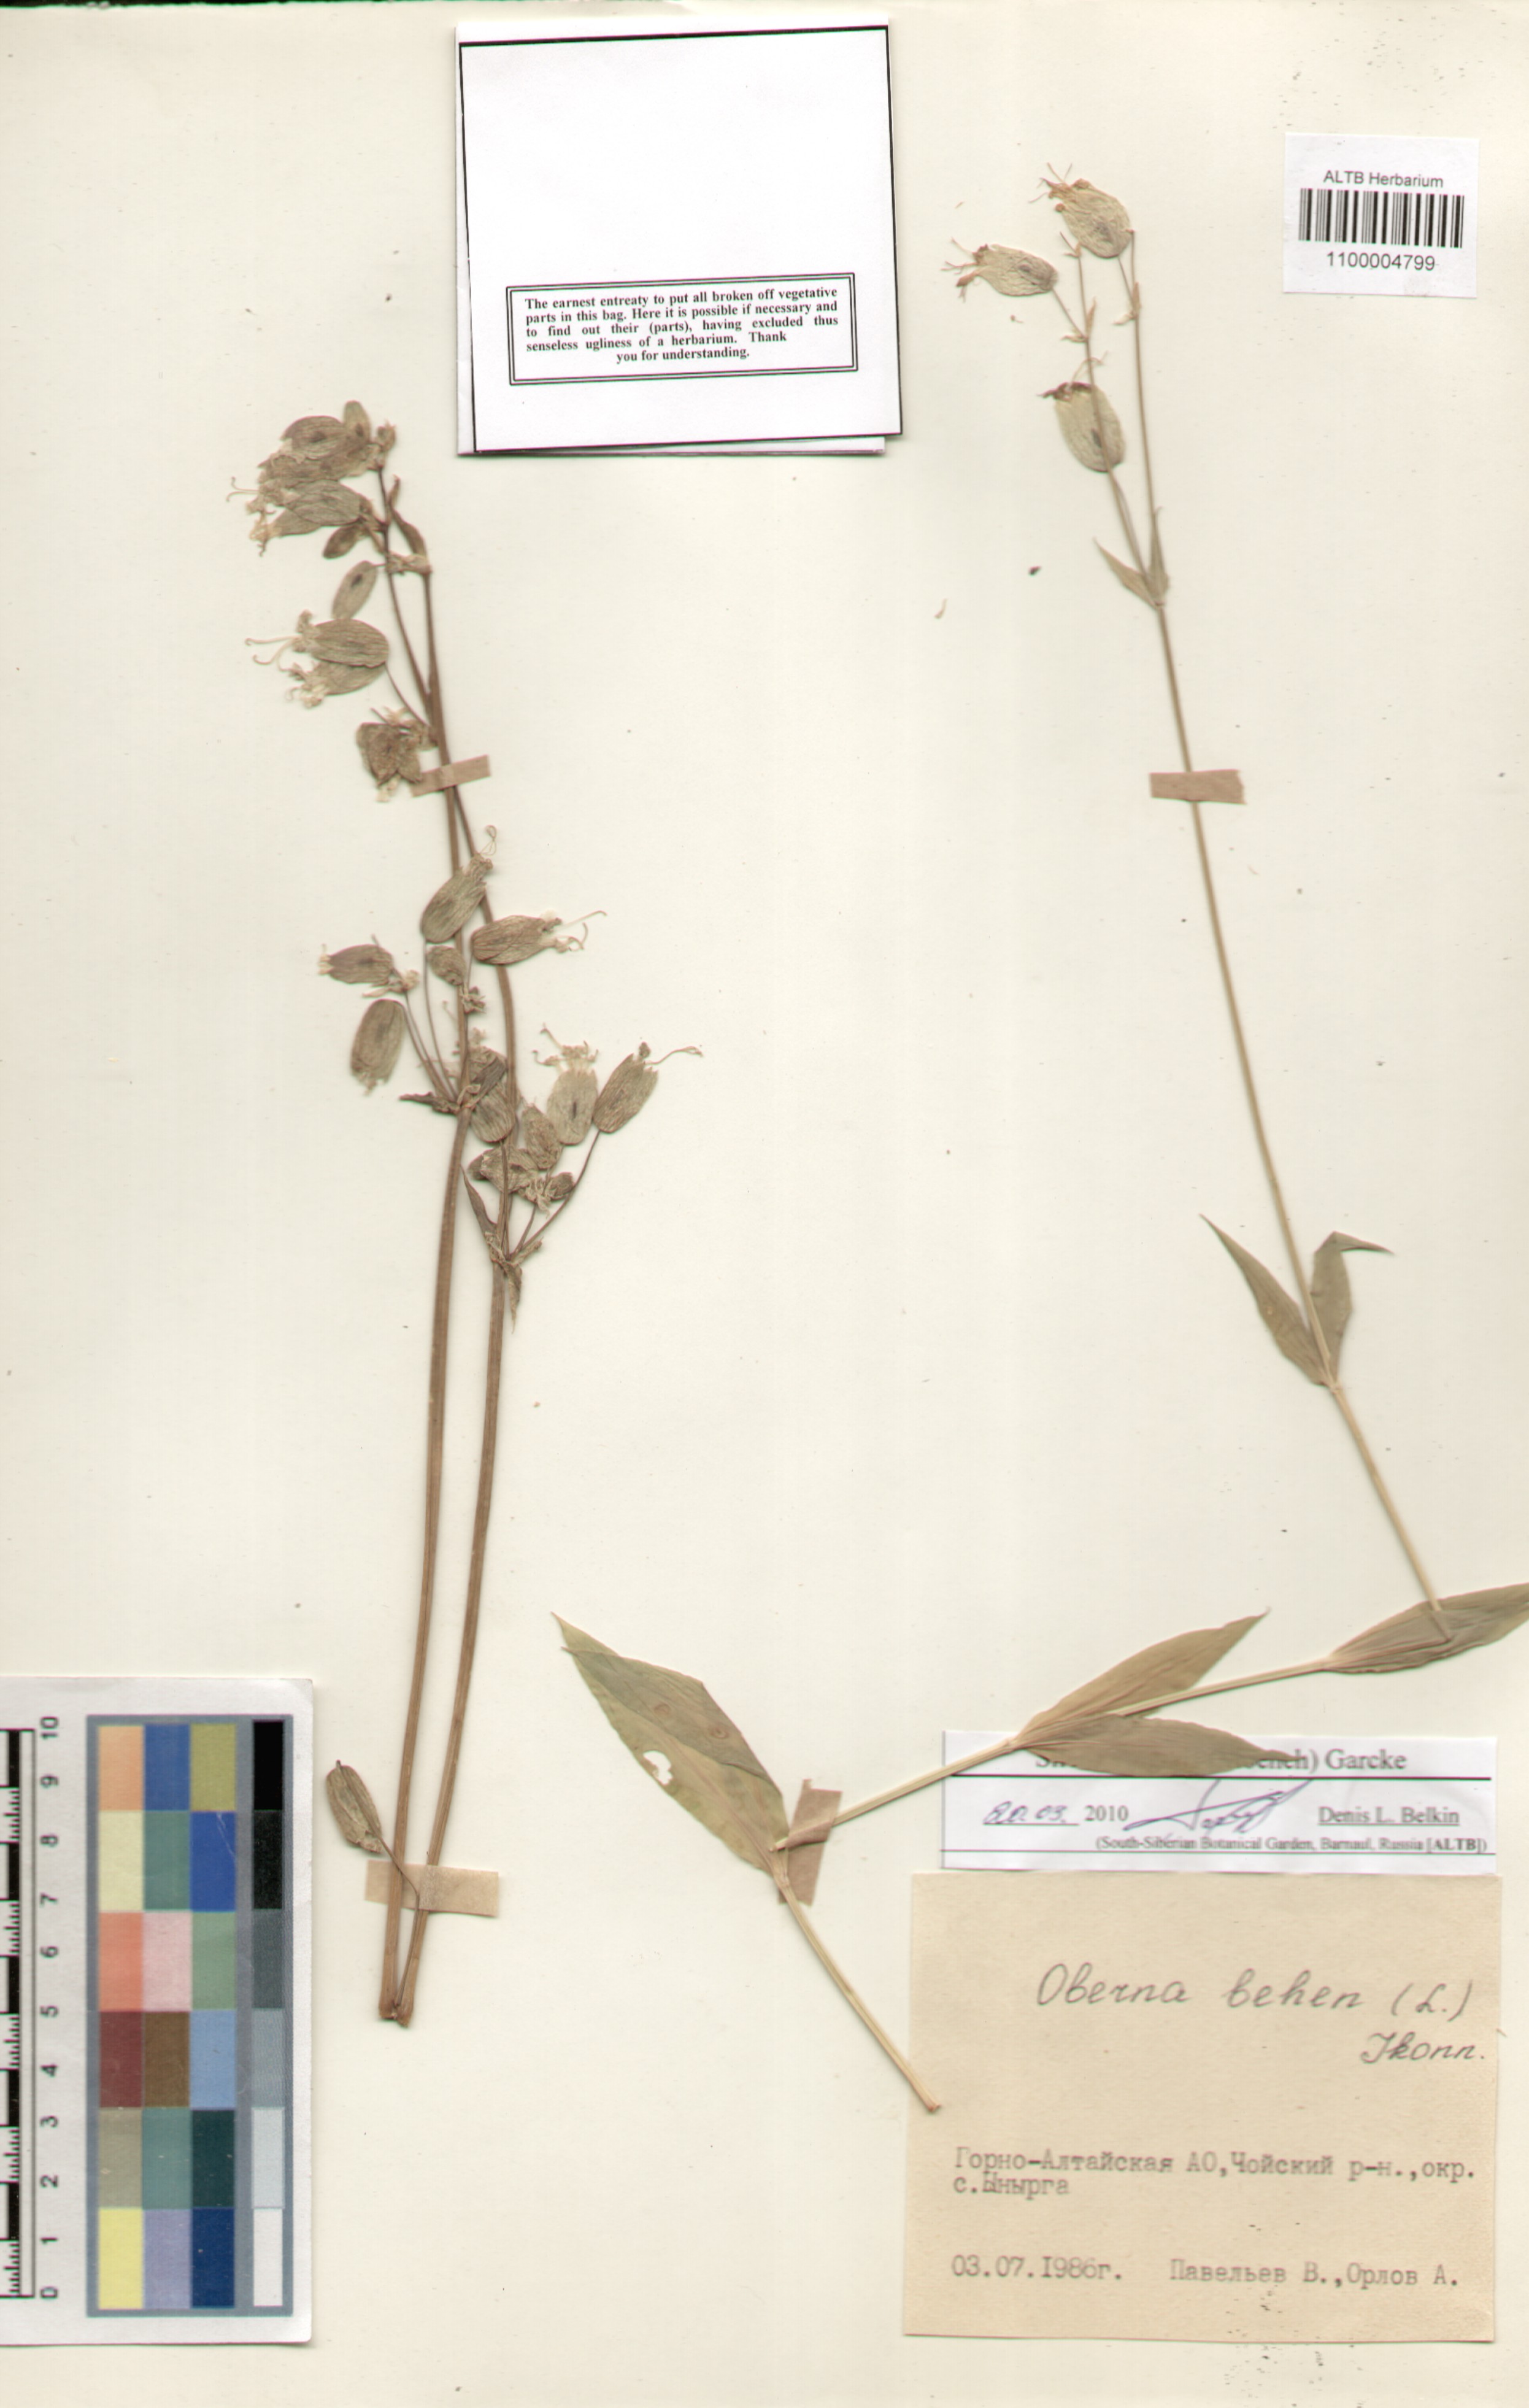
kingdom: Plantae
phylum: Tracheophyta
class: Magnoliopsida
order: Caryophyllales
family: Caryophyllaceae
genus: Silene
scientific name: Silene vulgaris
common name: Bladder campion
